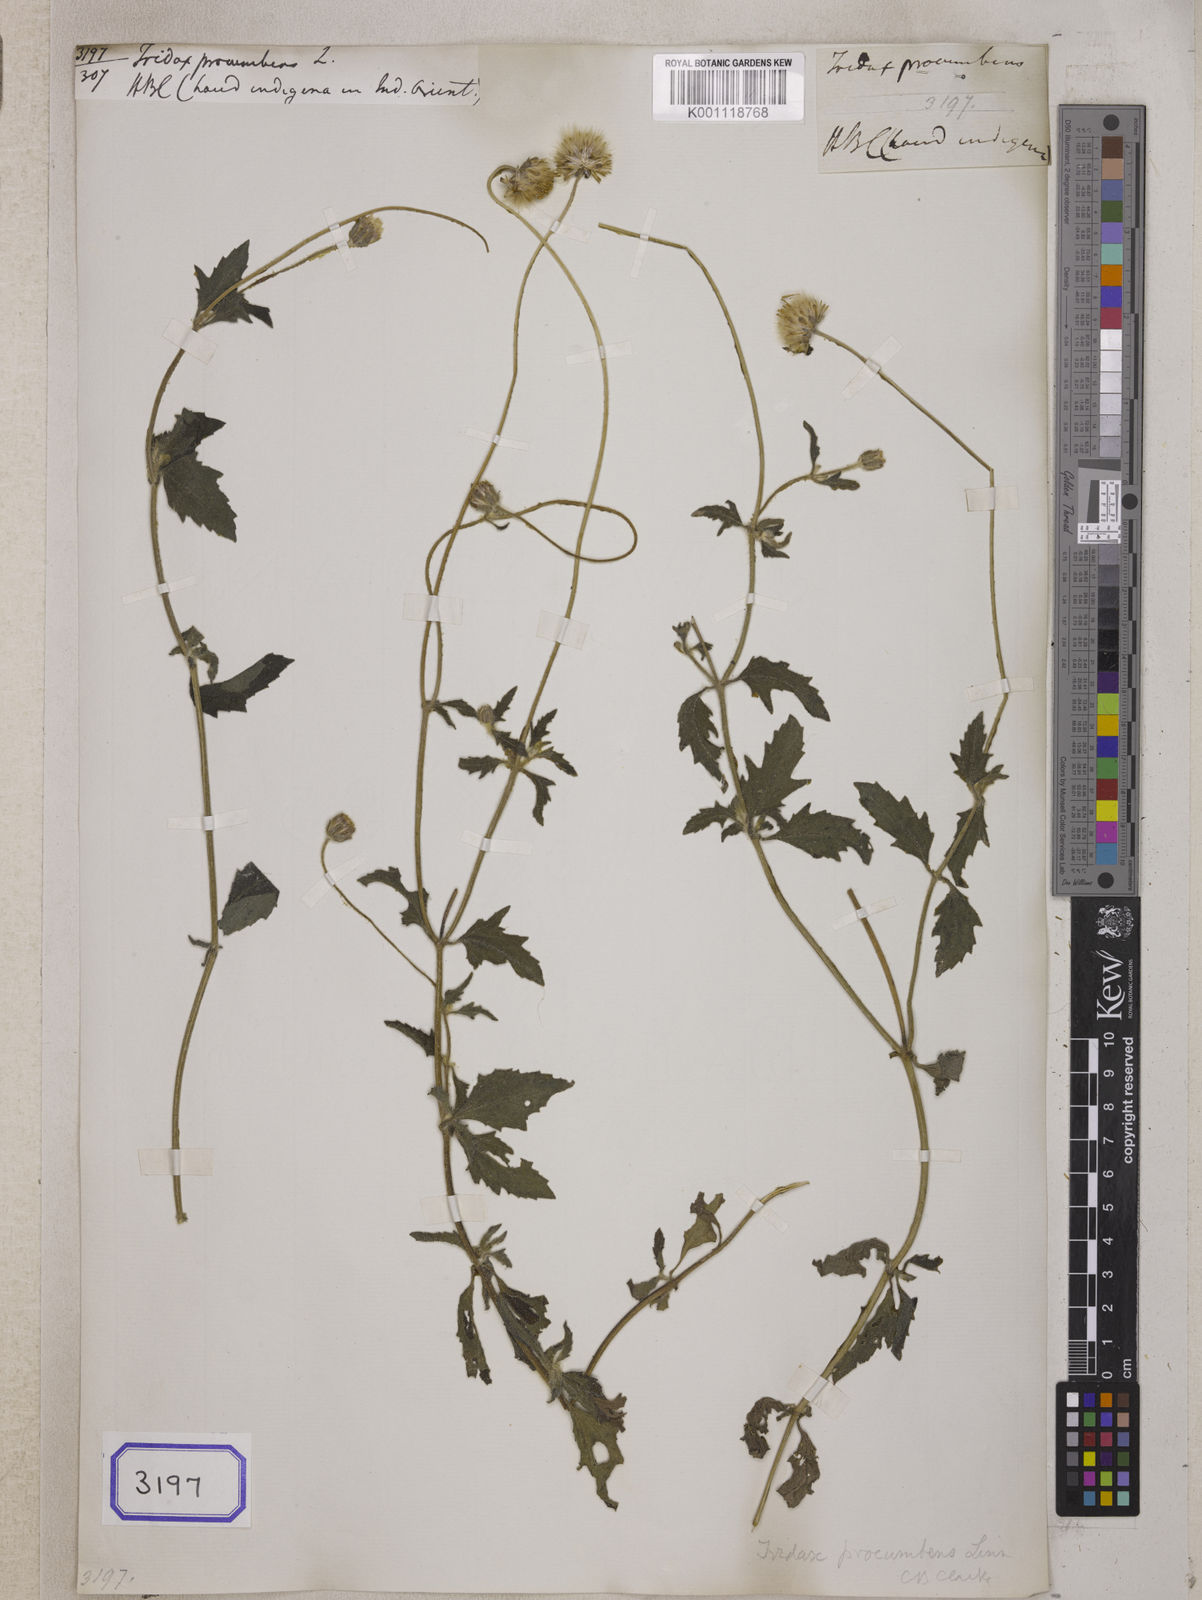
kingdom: Plantae
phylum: Tracheophyta
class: Magnoliopsida
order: Asterales
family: Asteraceae
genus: Tridax
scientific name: Tridax procumbens
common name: Coatbuttons
